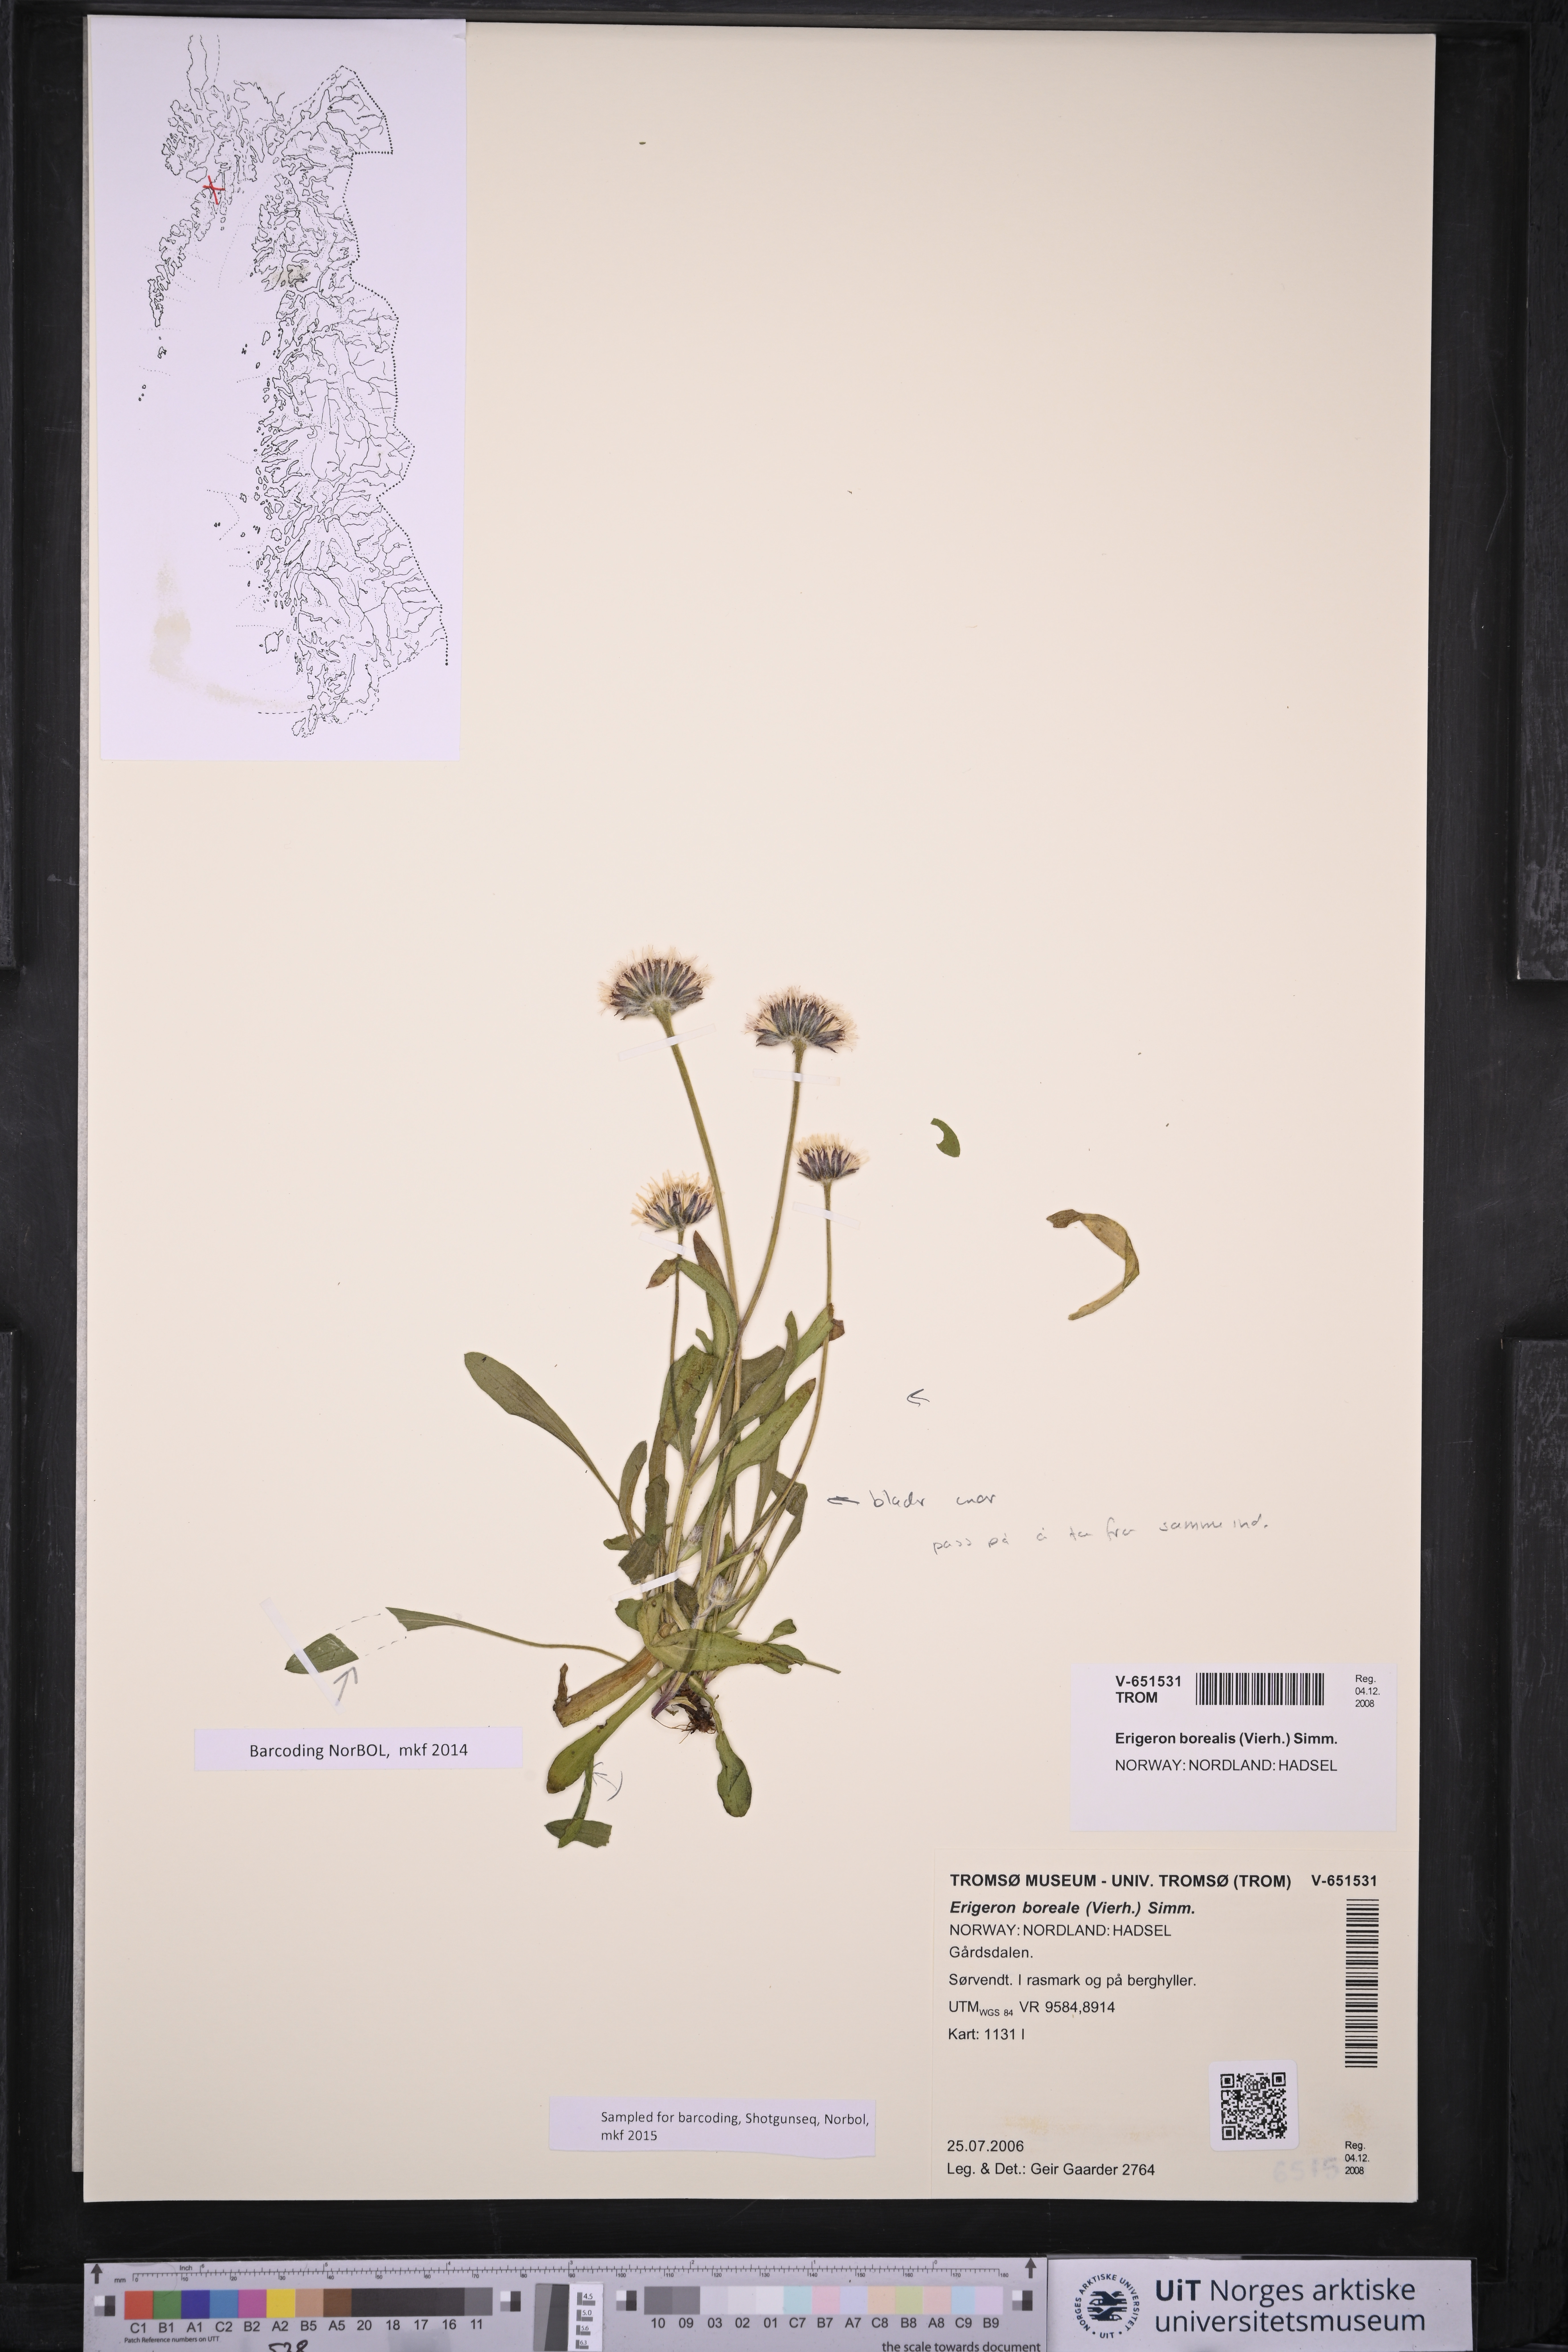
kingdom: Plantae
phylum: Tracheophyta
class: Magnoliopsida
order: Asterales
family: Asteraceae
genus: Erigeron
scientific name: Erigeron borealis
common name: Alpine fleabane
